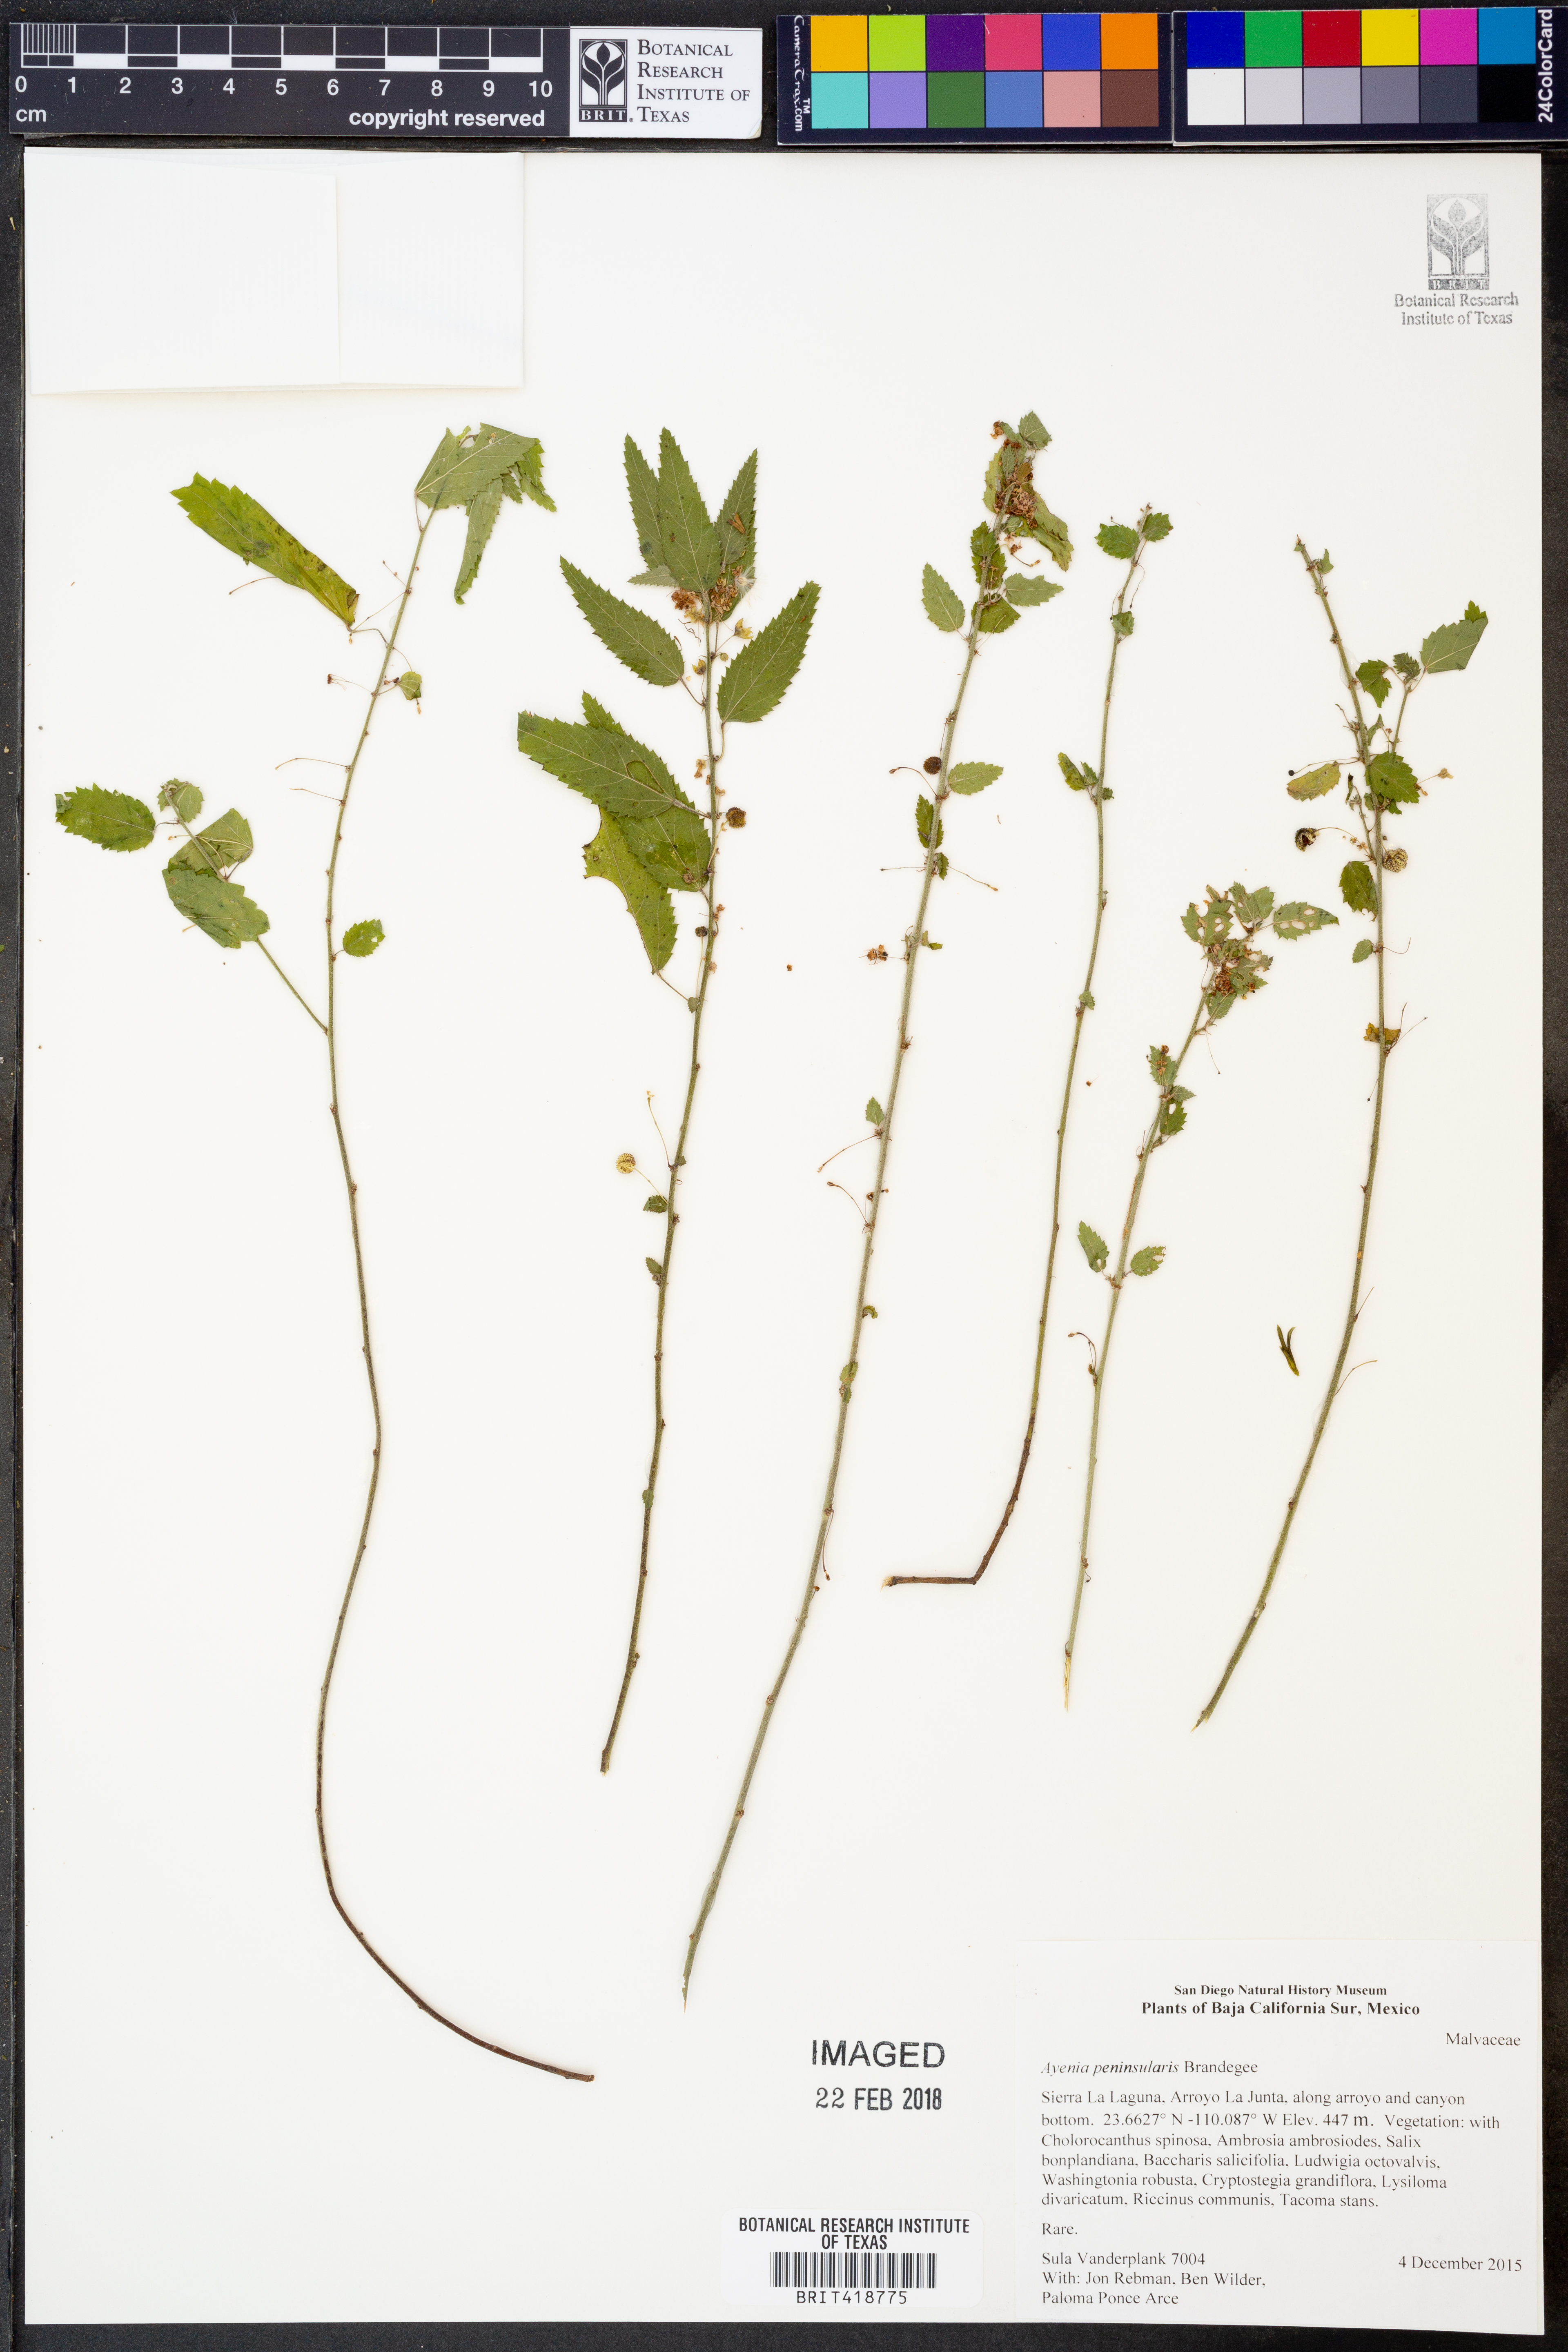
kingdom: Plantae
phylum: Tracheophyta
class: Magnoliopsida
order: Malvales
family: Malvaceae
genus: Ayenia
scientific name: Ayenia peninsularis
